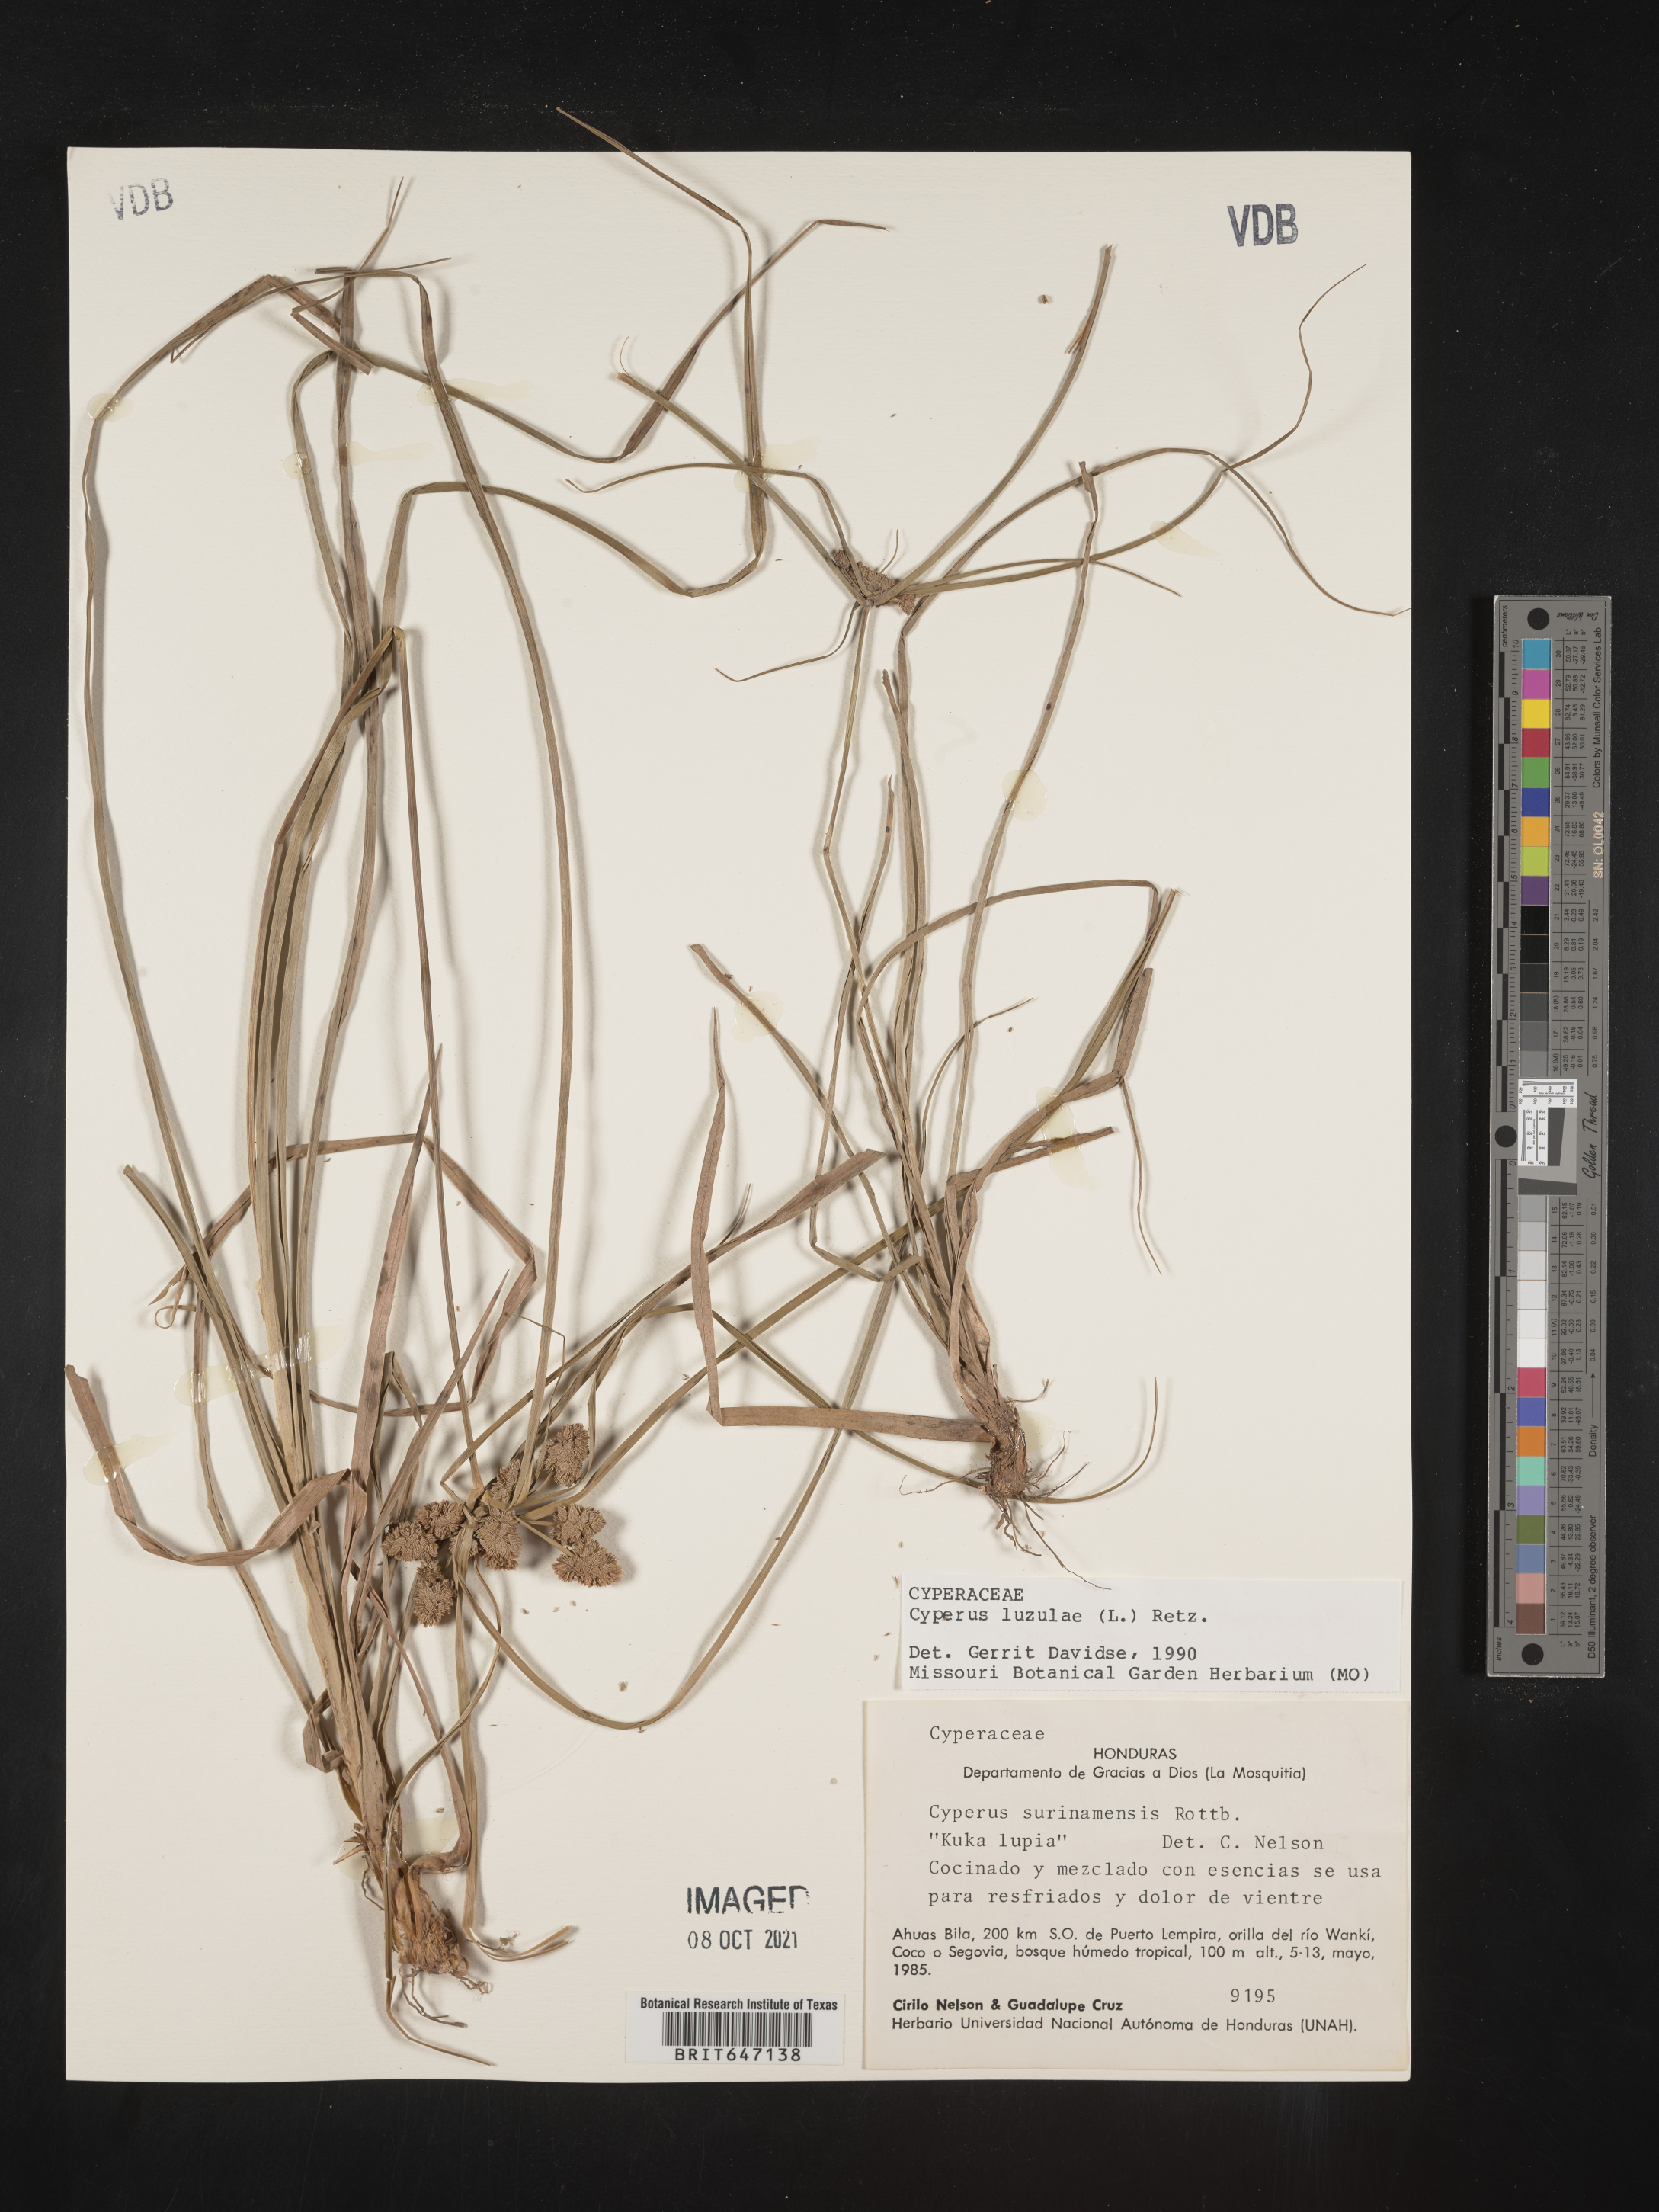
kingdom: Plantae
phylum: Tracheophyta
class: Liliopsida
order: Poales
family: Cyperaceae
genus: Cyperus
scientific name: Cyperus luzulae
